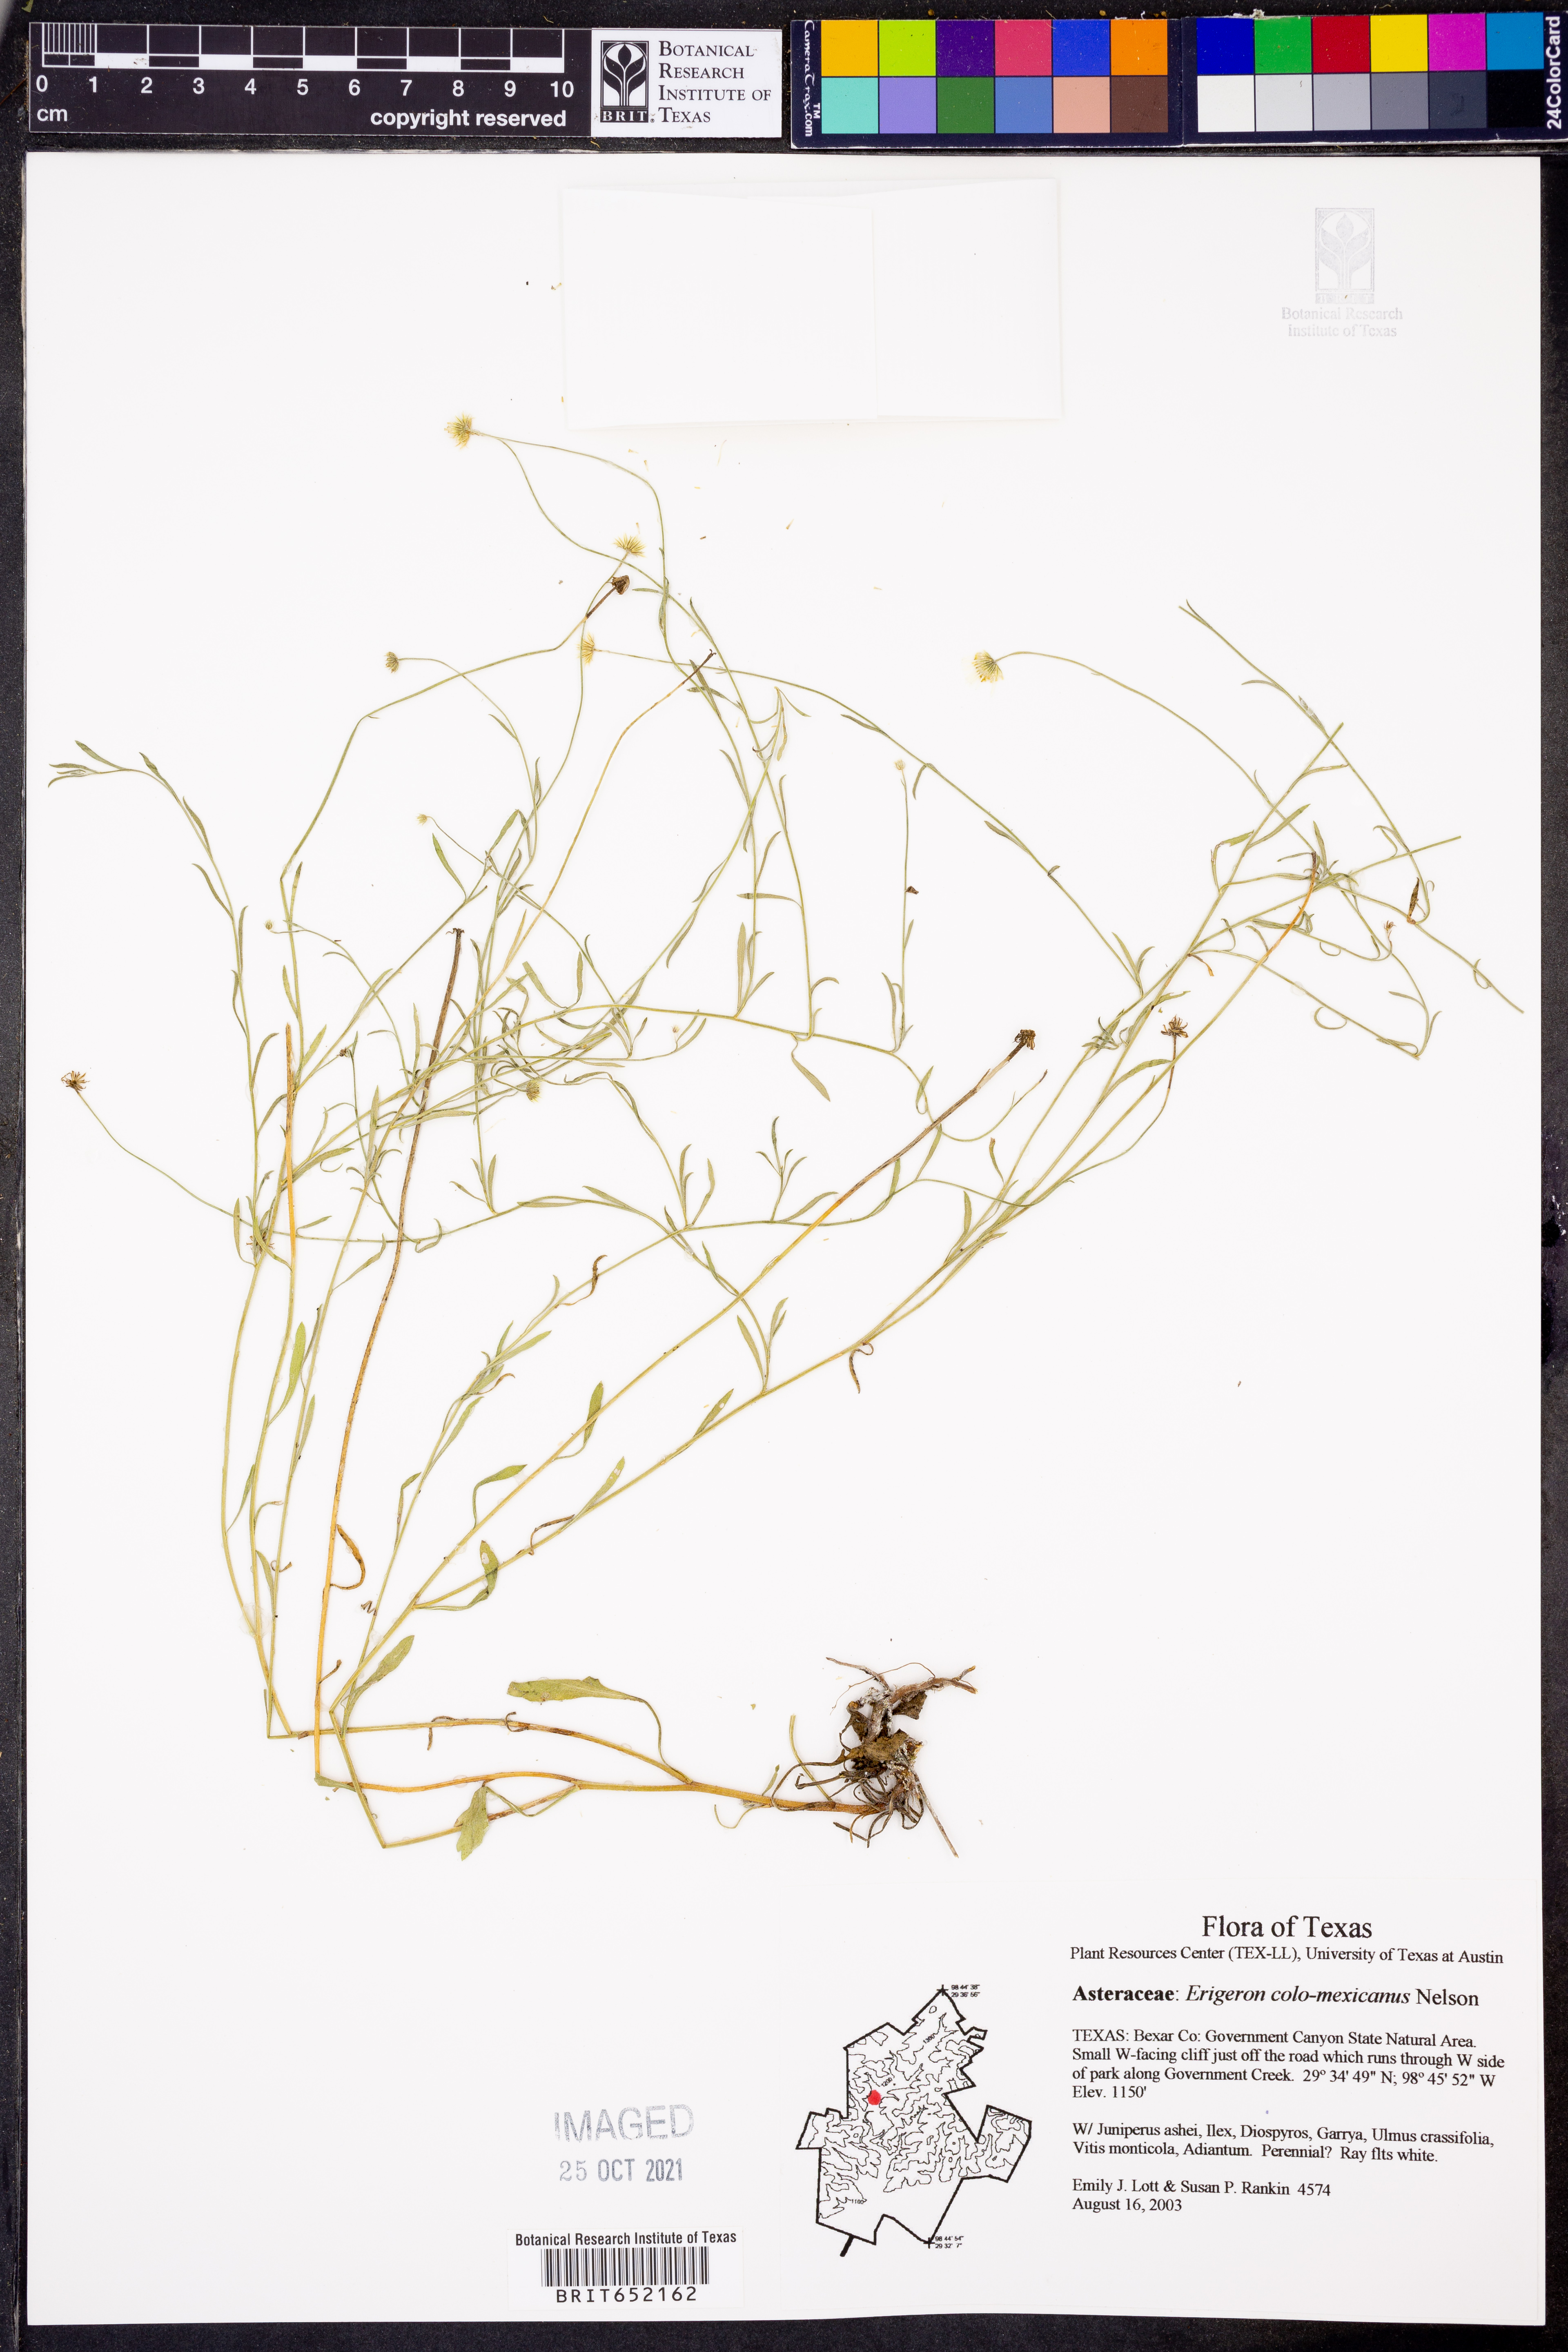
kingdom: Plantae
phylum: Tracheophyta
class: Magnoliopsida
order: Asterales
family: Asteraceae
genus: Erigeron
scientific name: Erigeron tracyi
